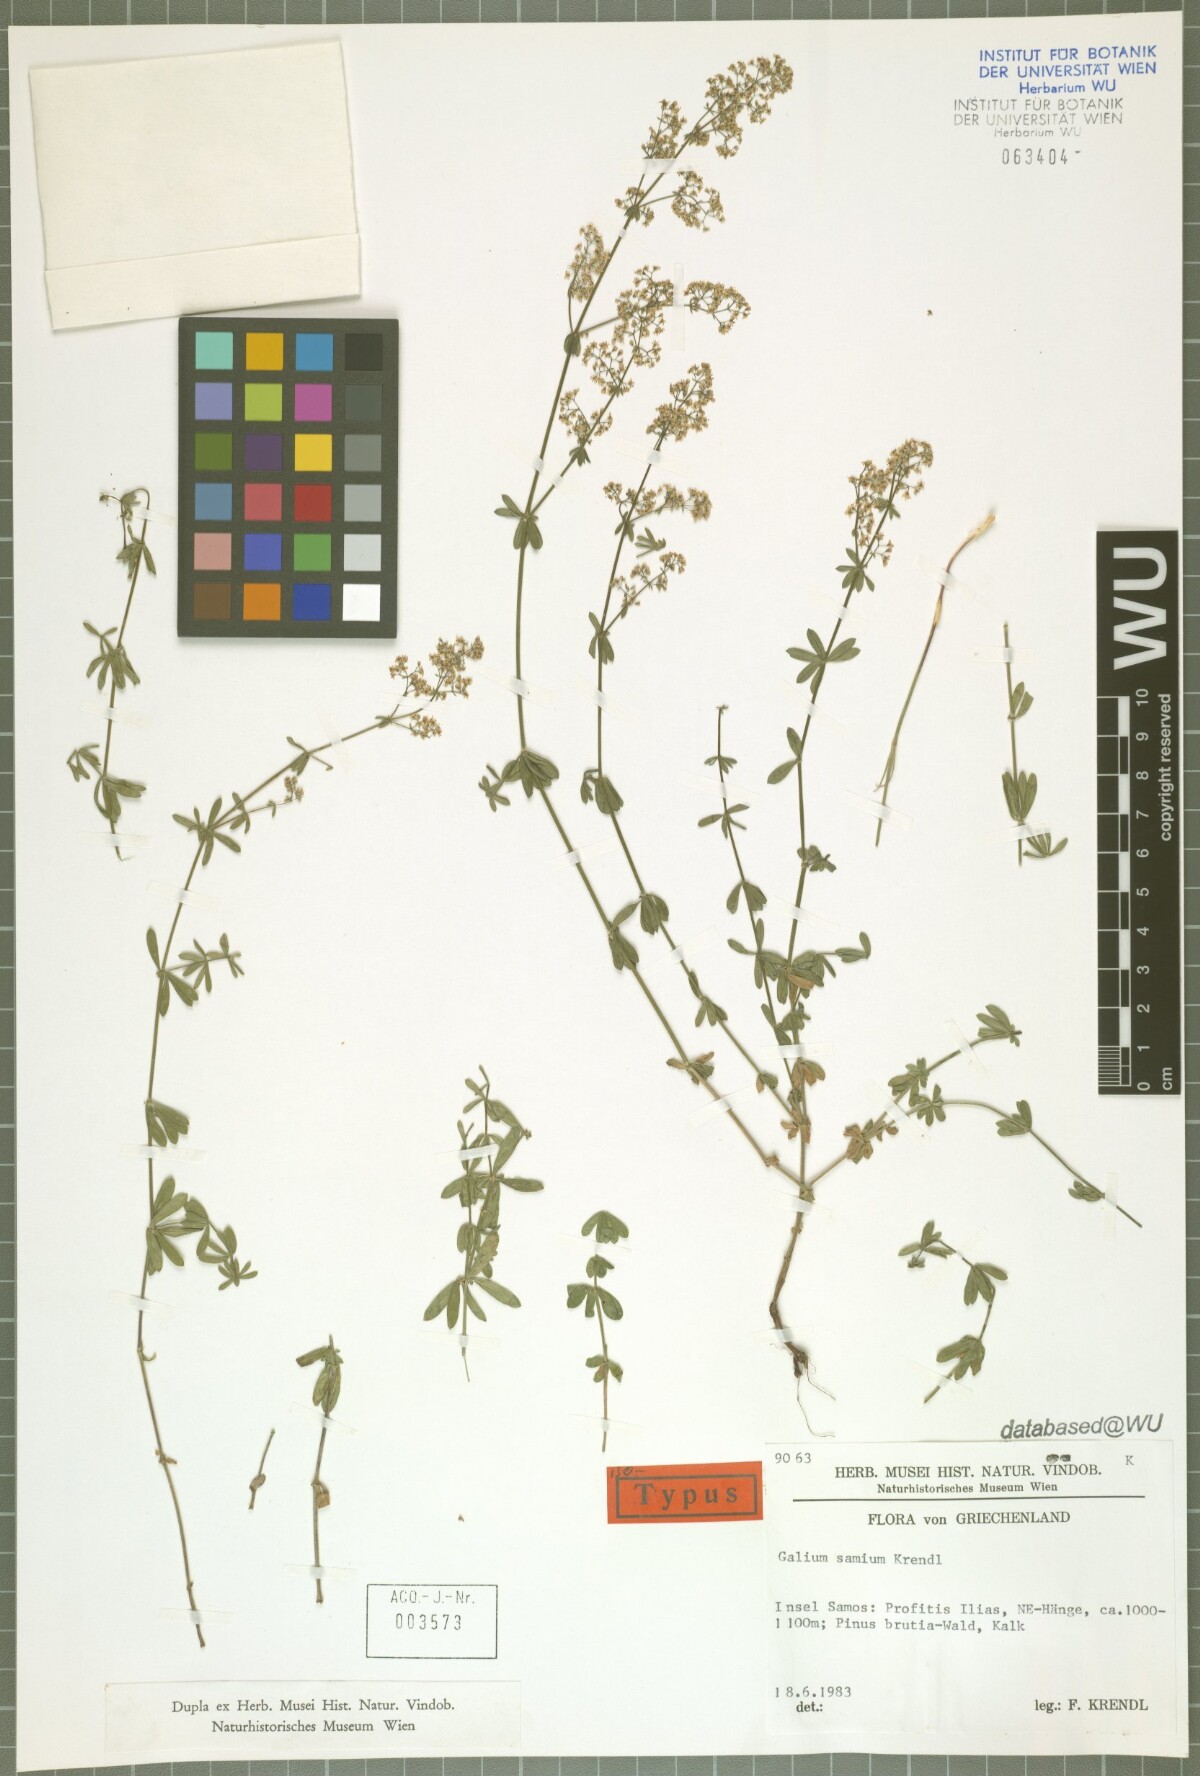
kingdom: Plantae
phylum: Tracheophyta
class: Magnoliopsida
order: Gentianales
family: Rubiaceae
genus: Galium
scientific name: Galium samium
